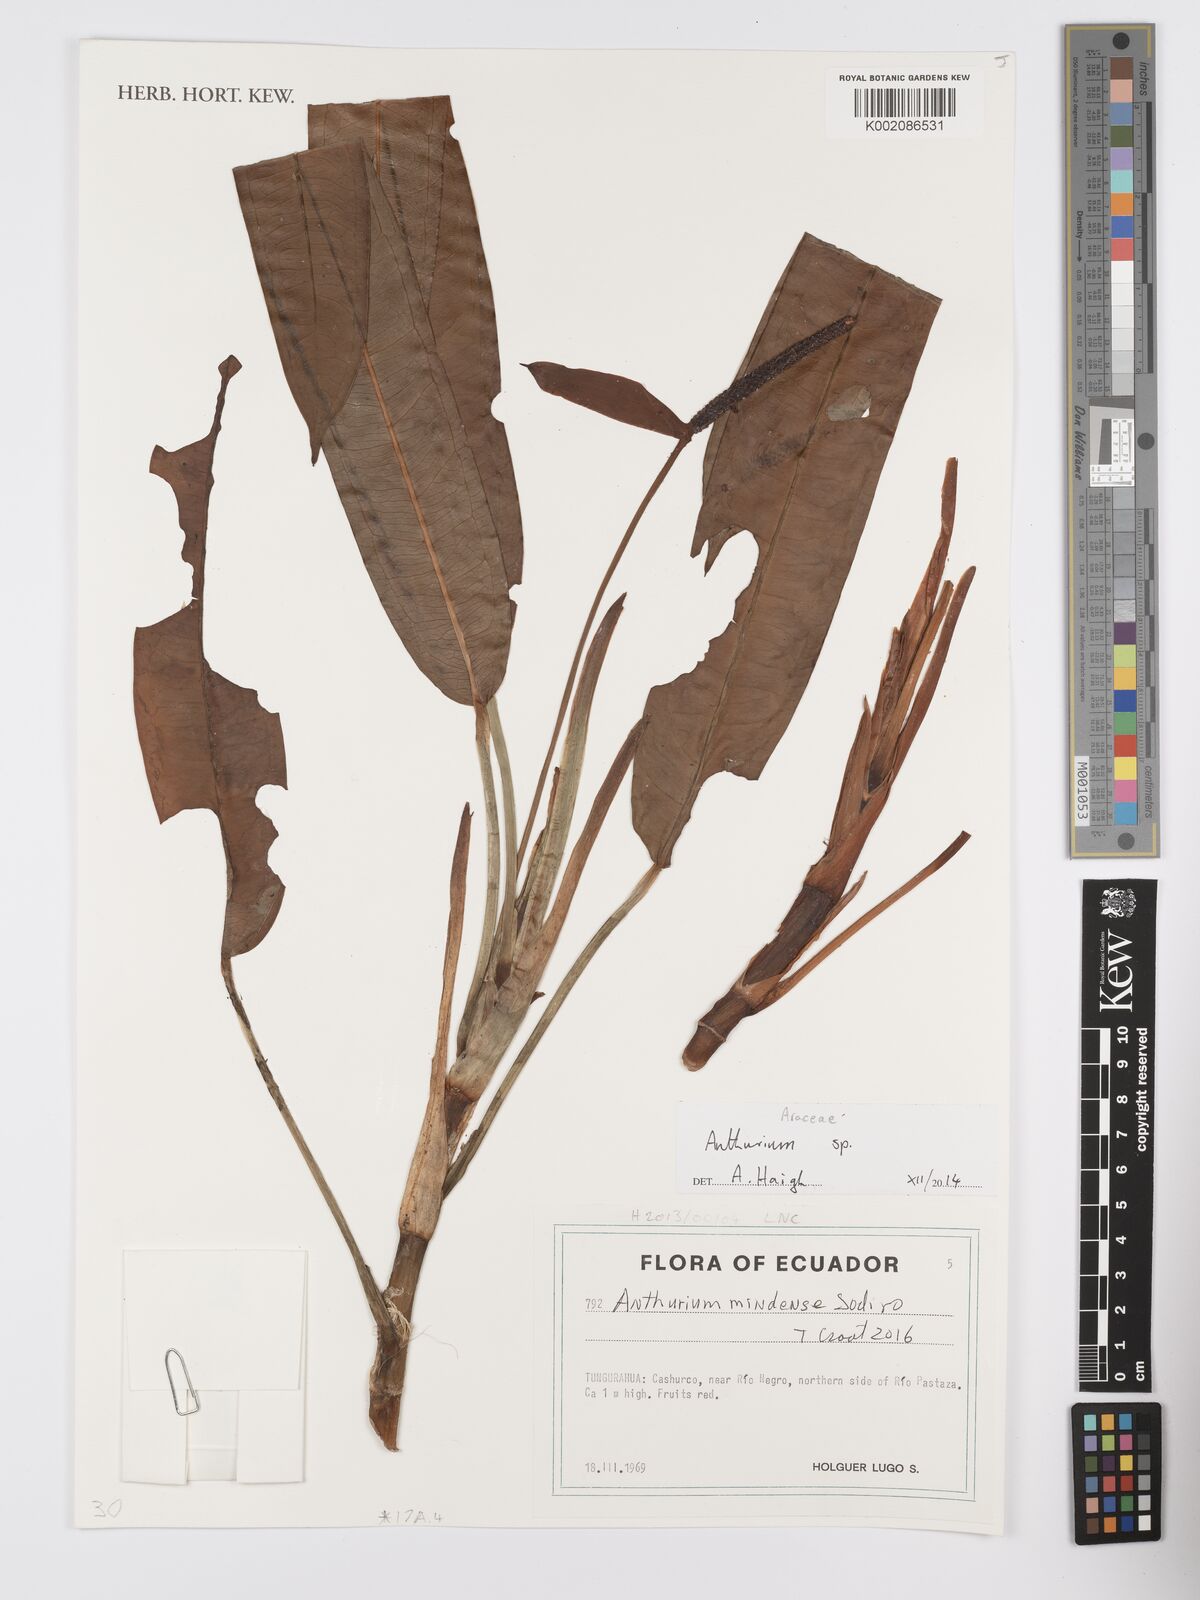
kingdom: Plantae
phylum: Tracheophyta
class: Liliopsida
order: Alismatales
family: Araceae
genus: Anthurium
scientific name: Anthurium mindense
